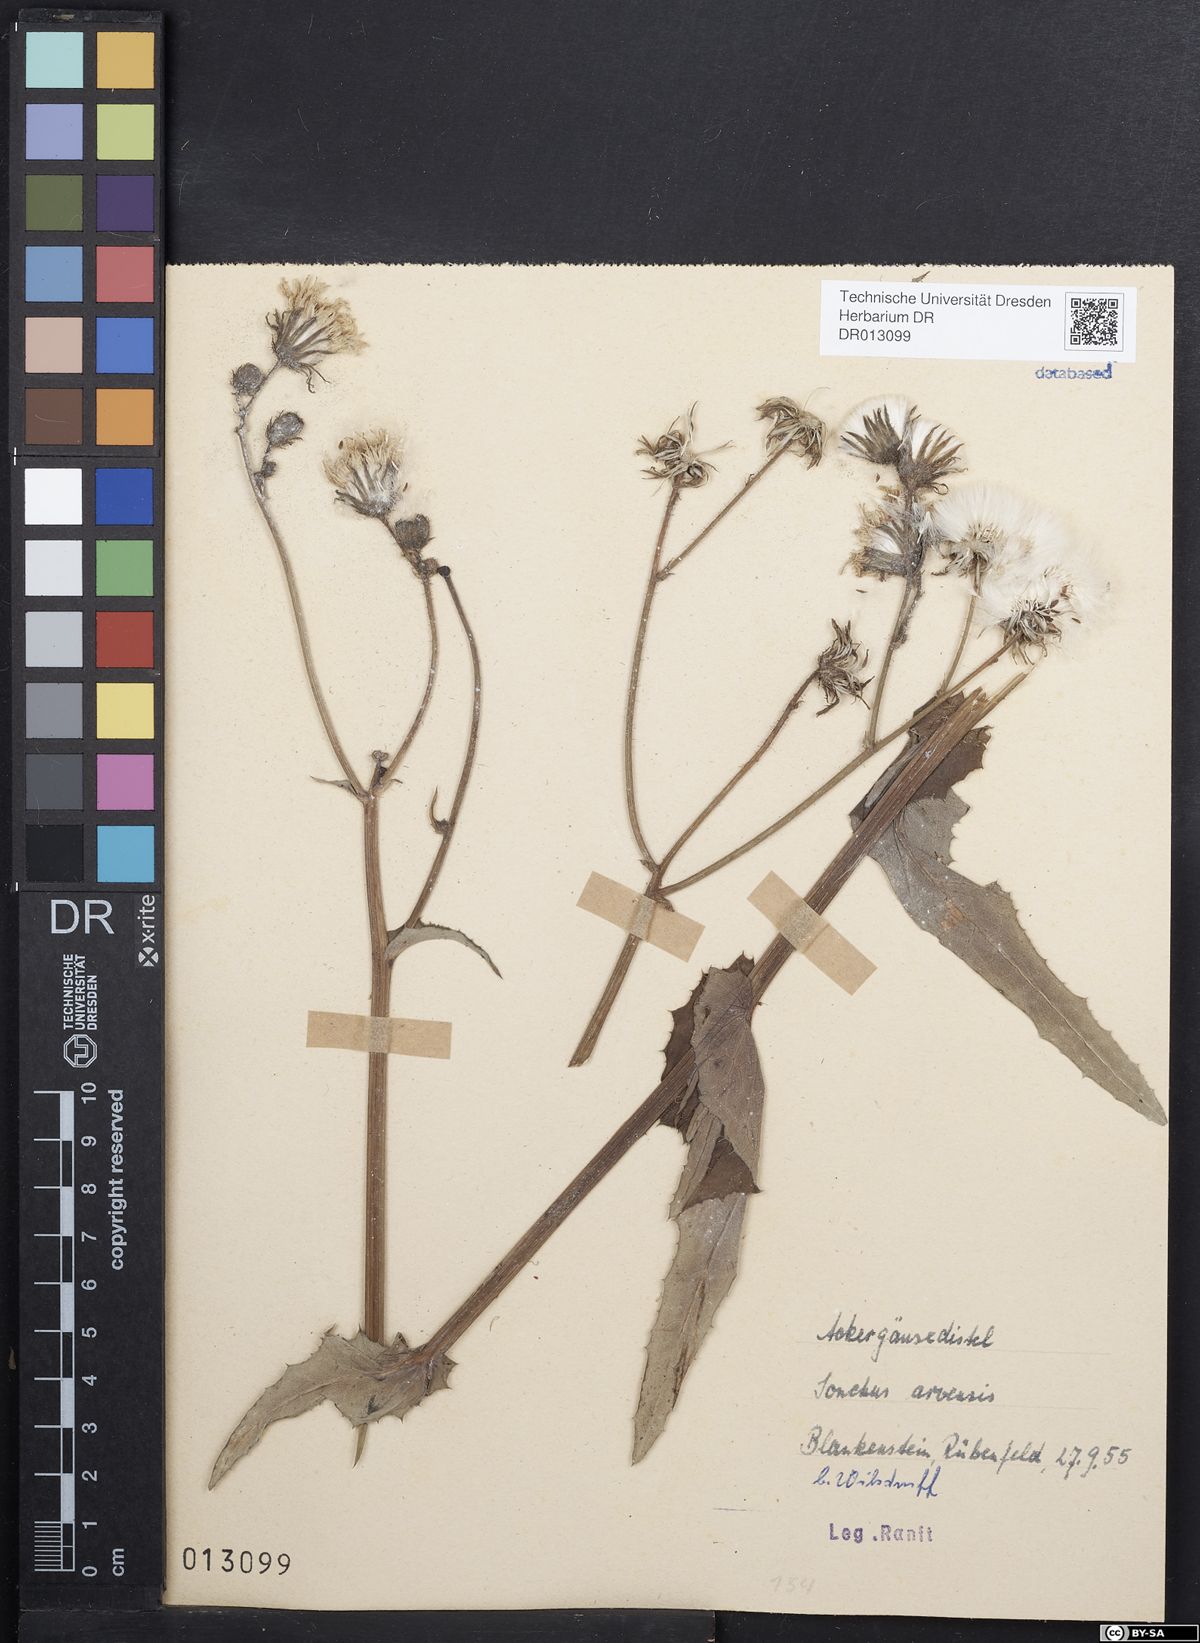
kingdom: Plantae
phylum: Tracheophyta
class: Magnoliopsida
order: Asterales
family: Asteraceae
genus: Sonchus
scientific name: Sonchus arvensis
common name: Perennial sow-thistle
